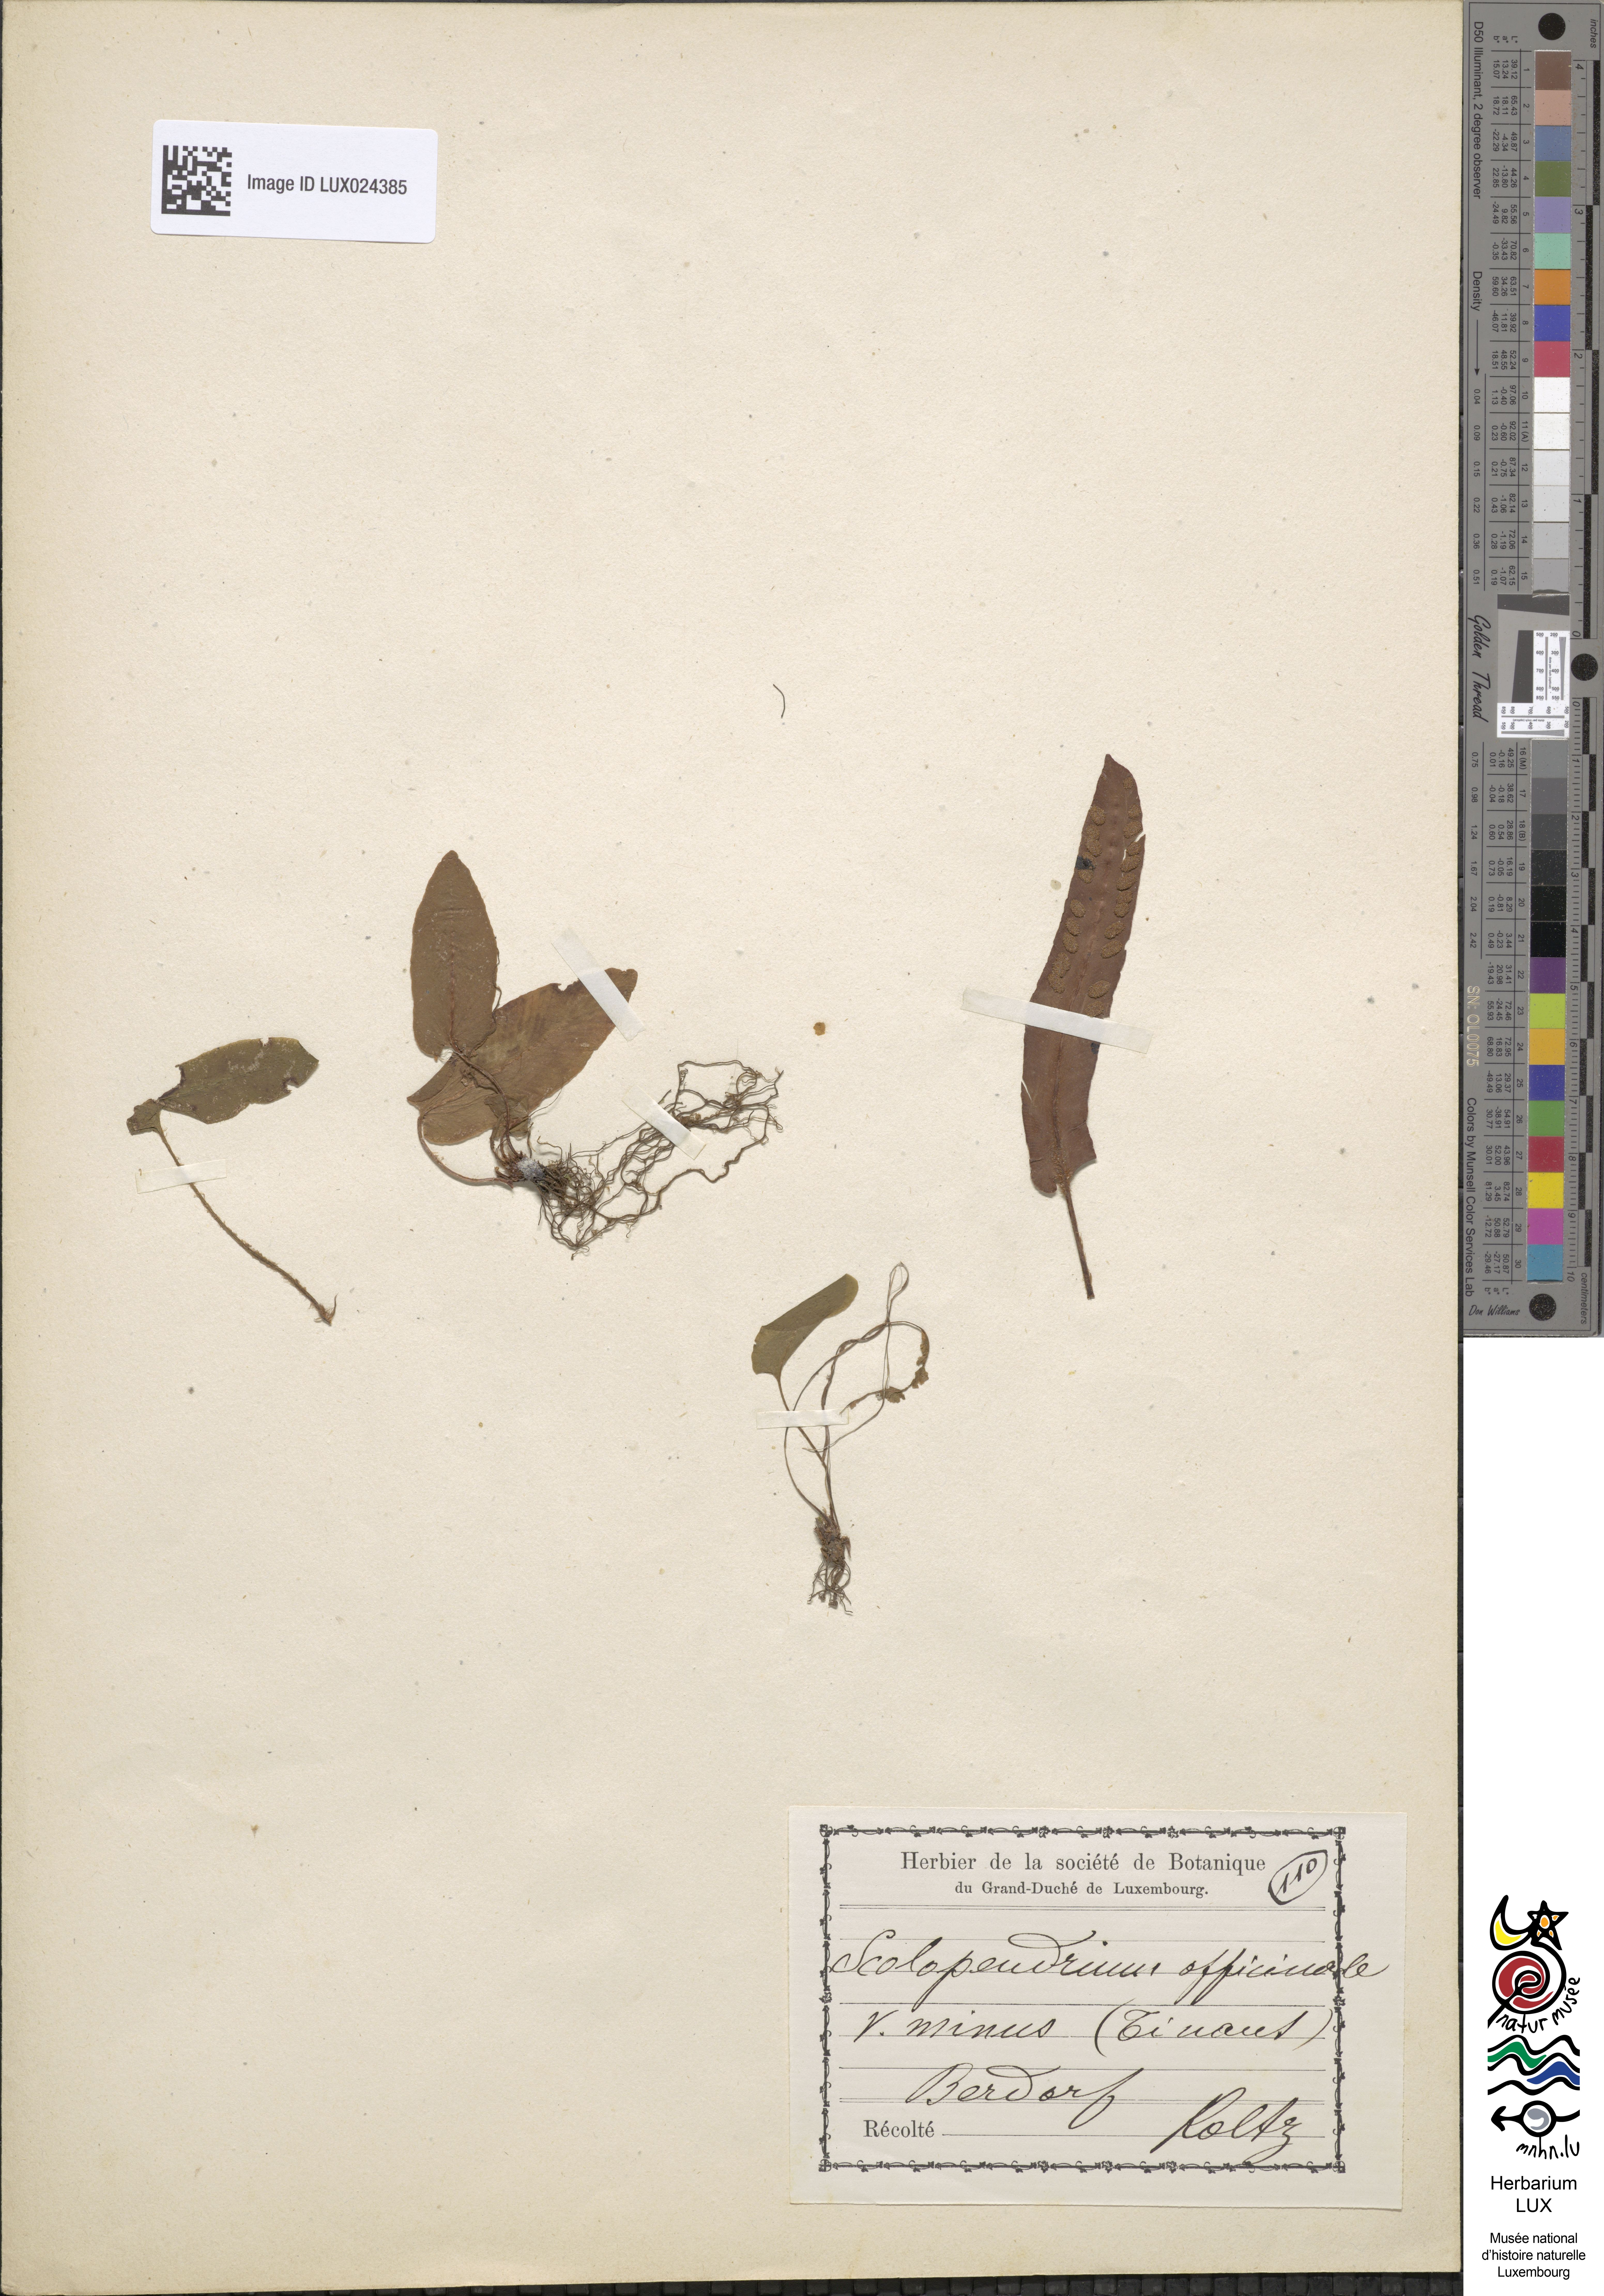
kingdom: Plantae
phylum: Tracheophyta
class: Polypodiopsida
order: Polypodiales
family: Aspleniaceae
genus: Asplenium
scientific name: Asplenium scolopendrium
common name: Hart's-tongue fern
